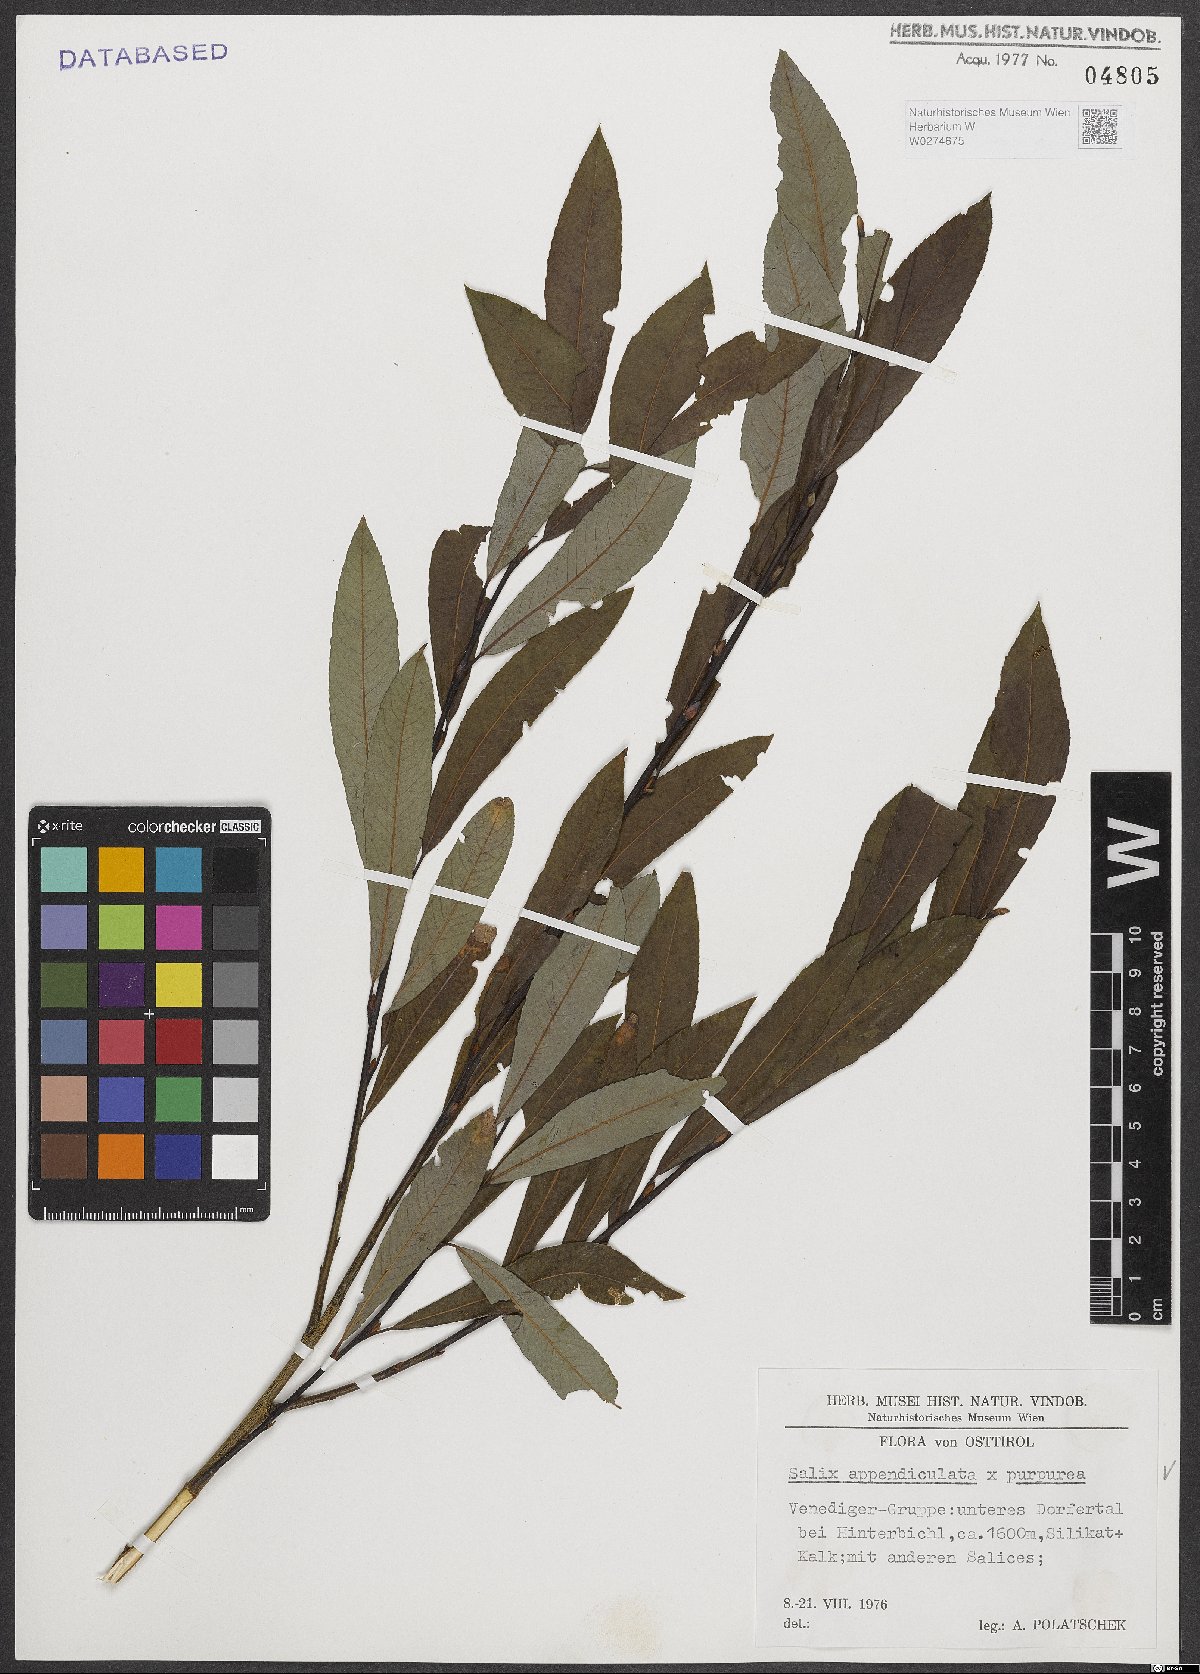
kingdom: Plantae
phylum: Tracheophyta
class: Magnoliopsida
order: Malpighiales
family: Salicaceae
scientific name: Salicaceae
